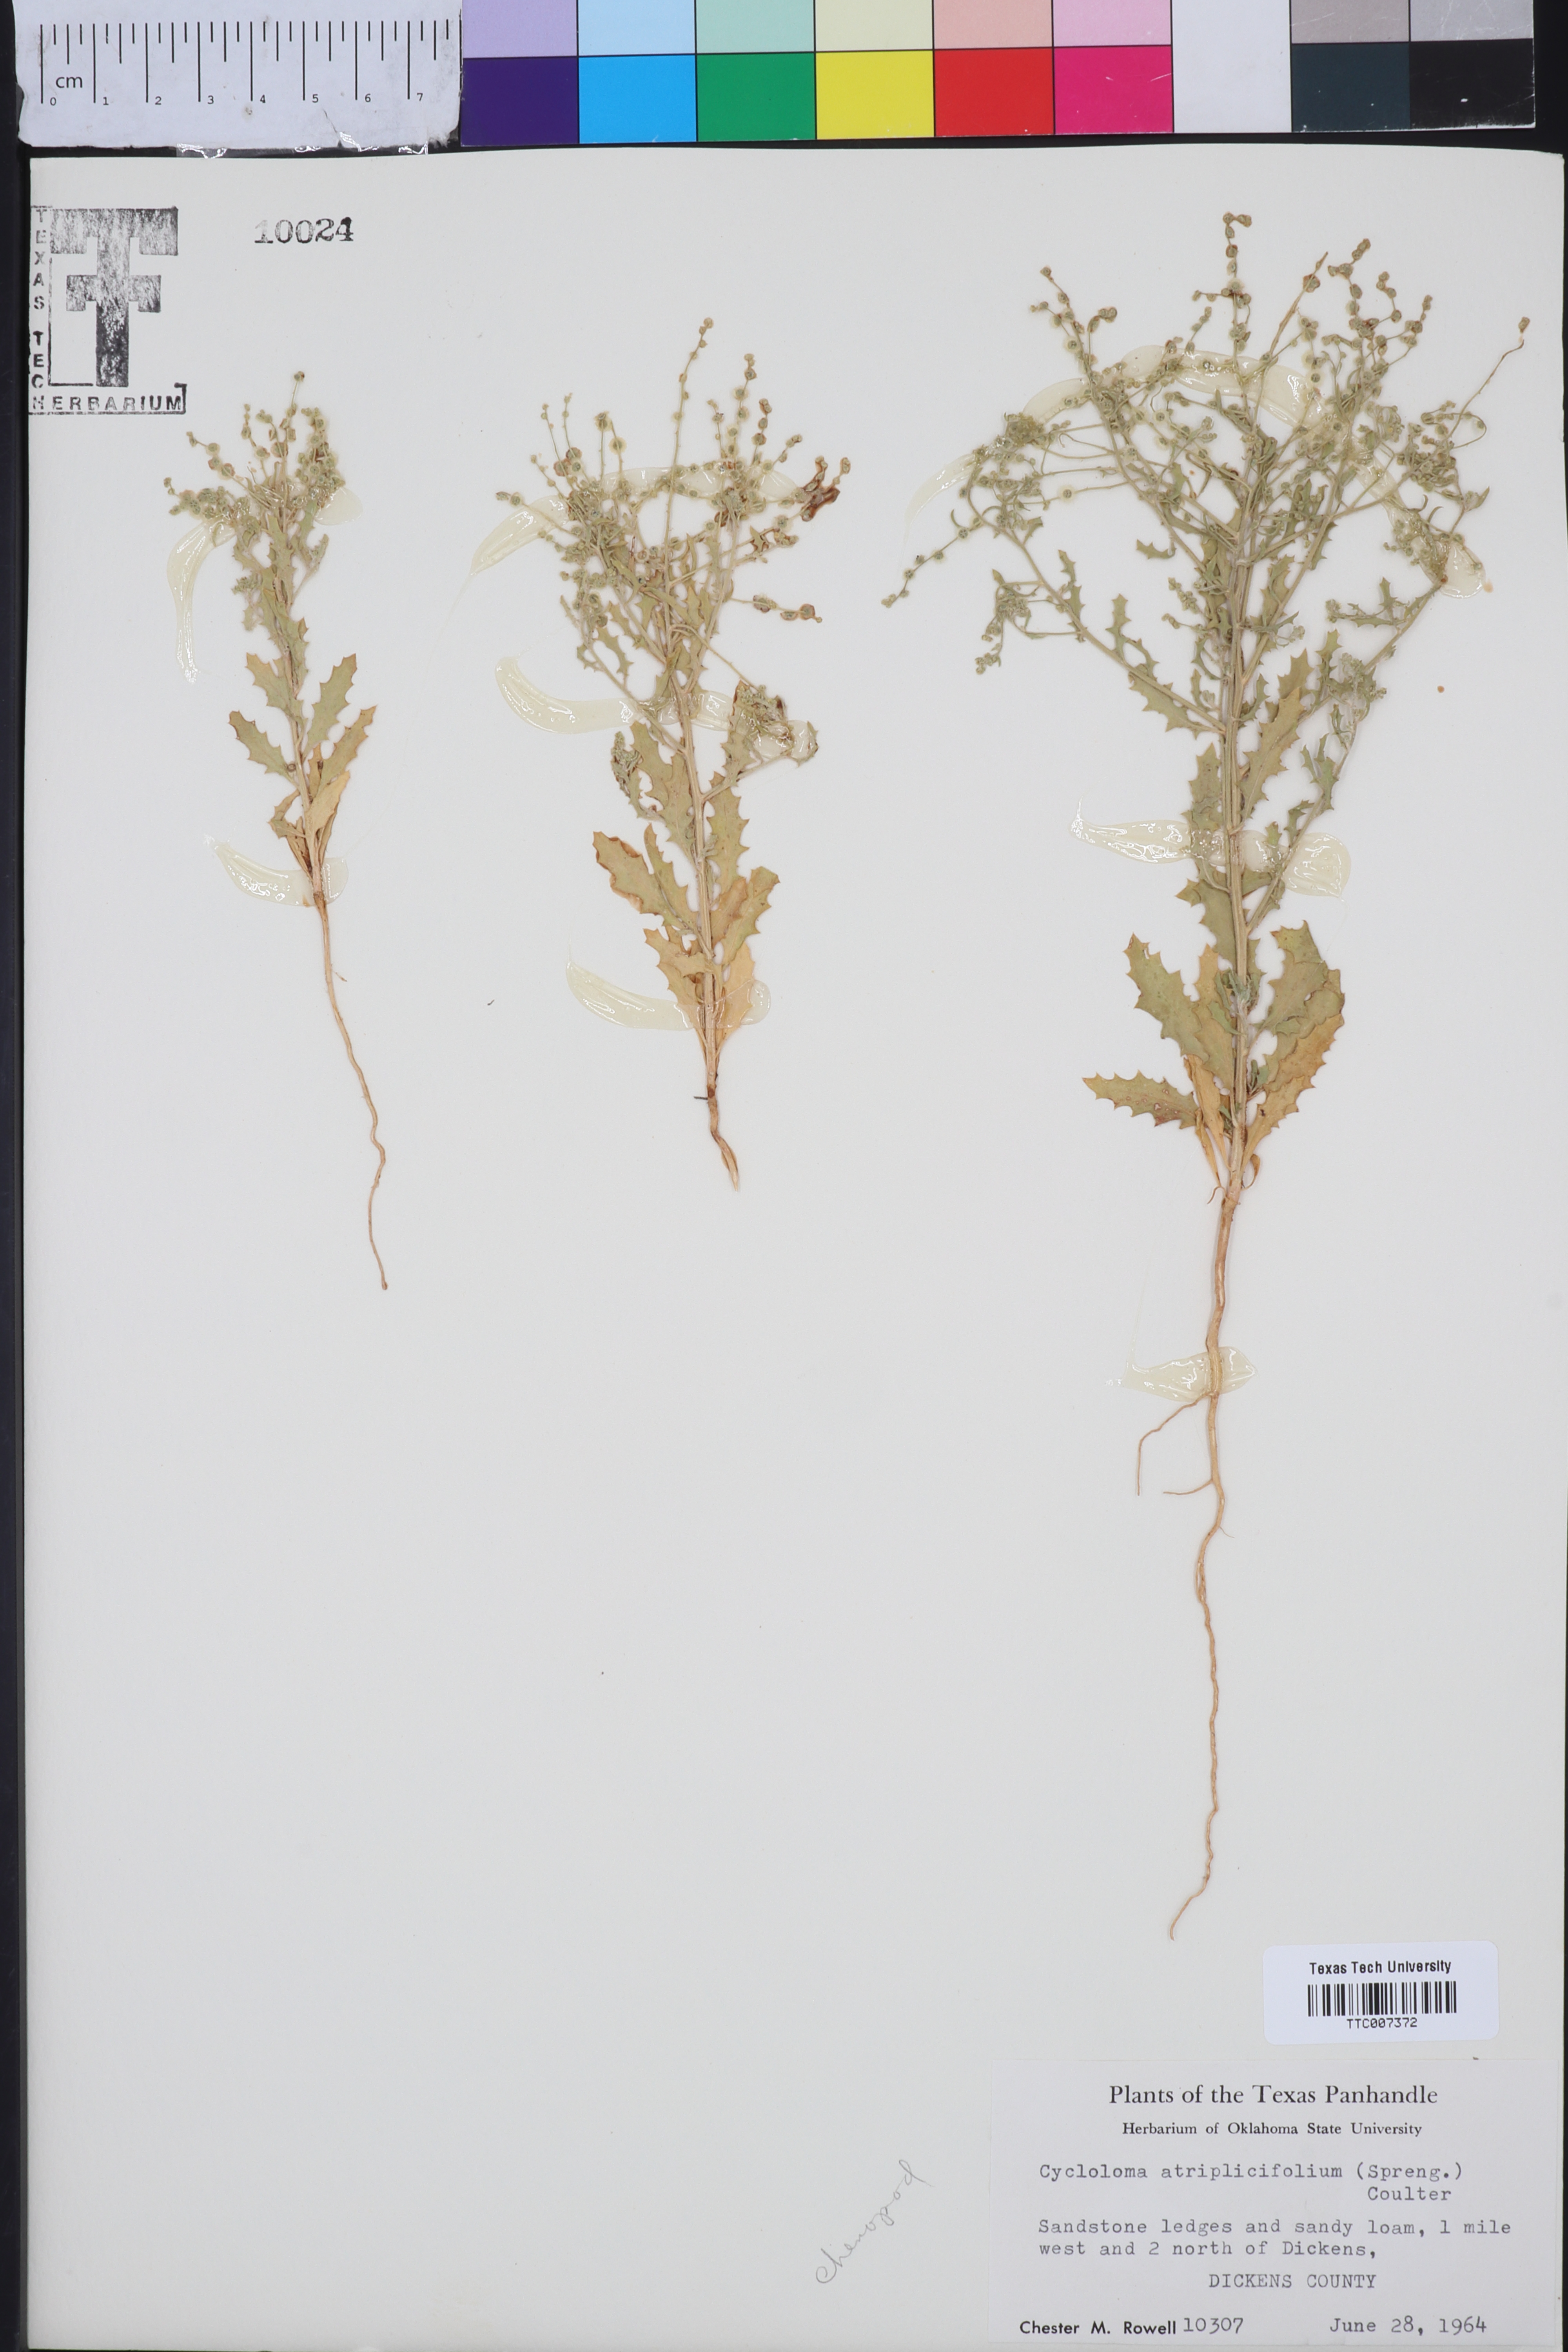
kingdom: Plantae
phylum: Tracheophyta
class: Magnoliopsida
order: Caryophyllales
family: Amaranthaceae
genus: Dysphania
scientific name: Dysphania atriplicifolia
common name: Plains tumbleweed
